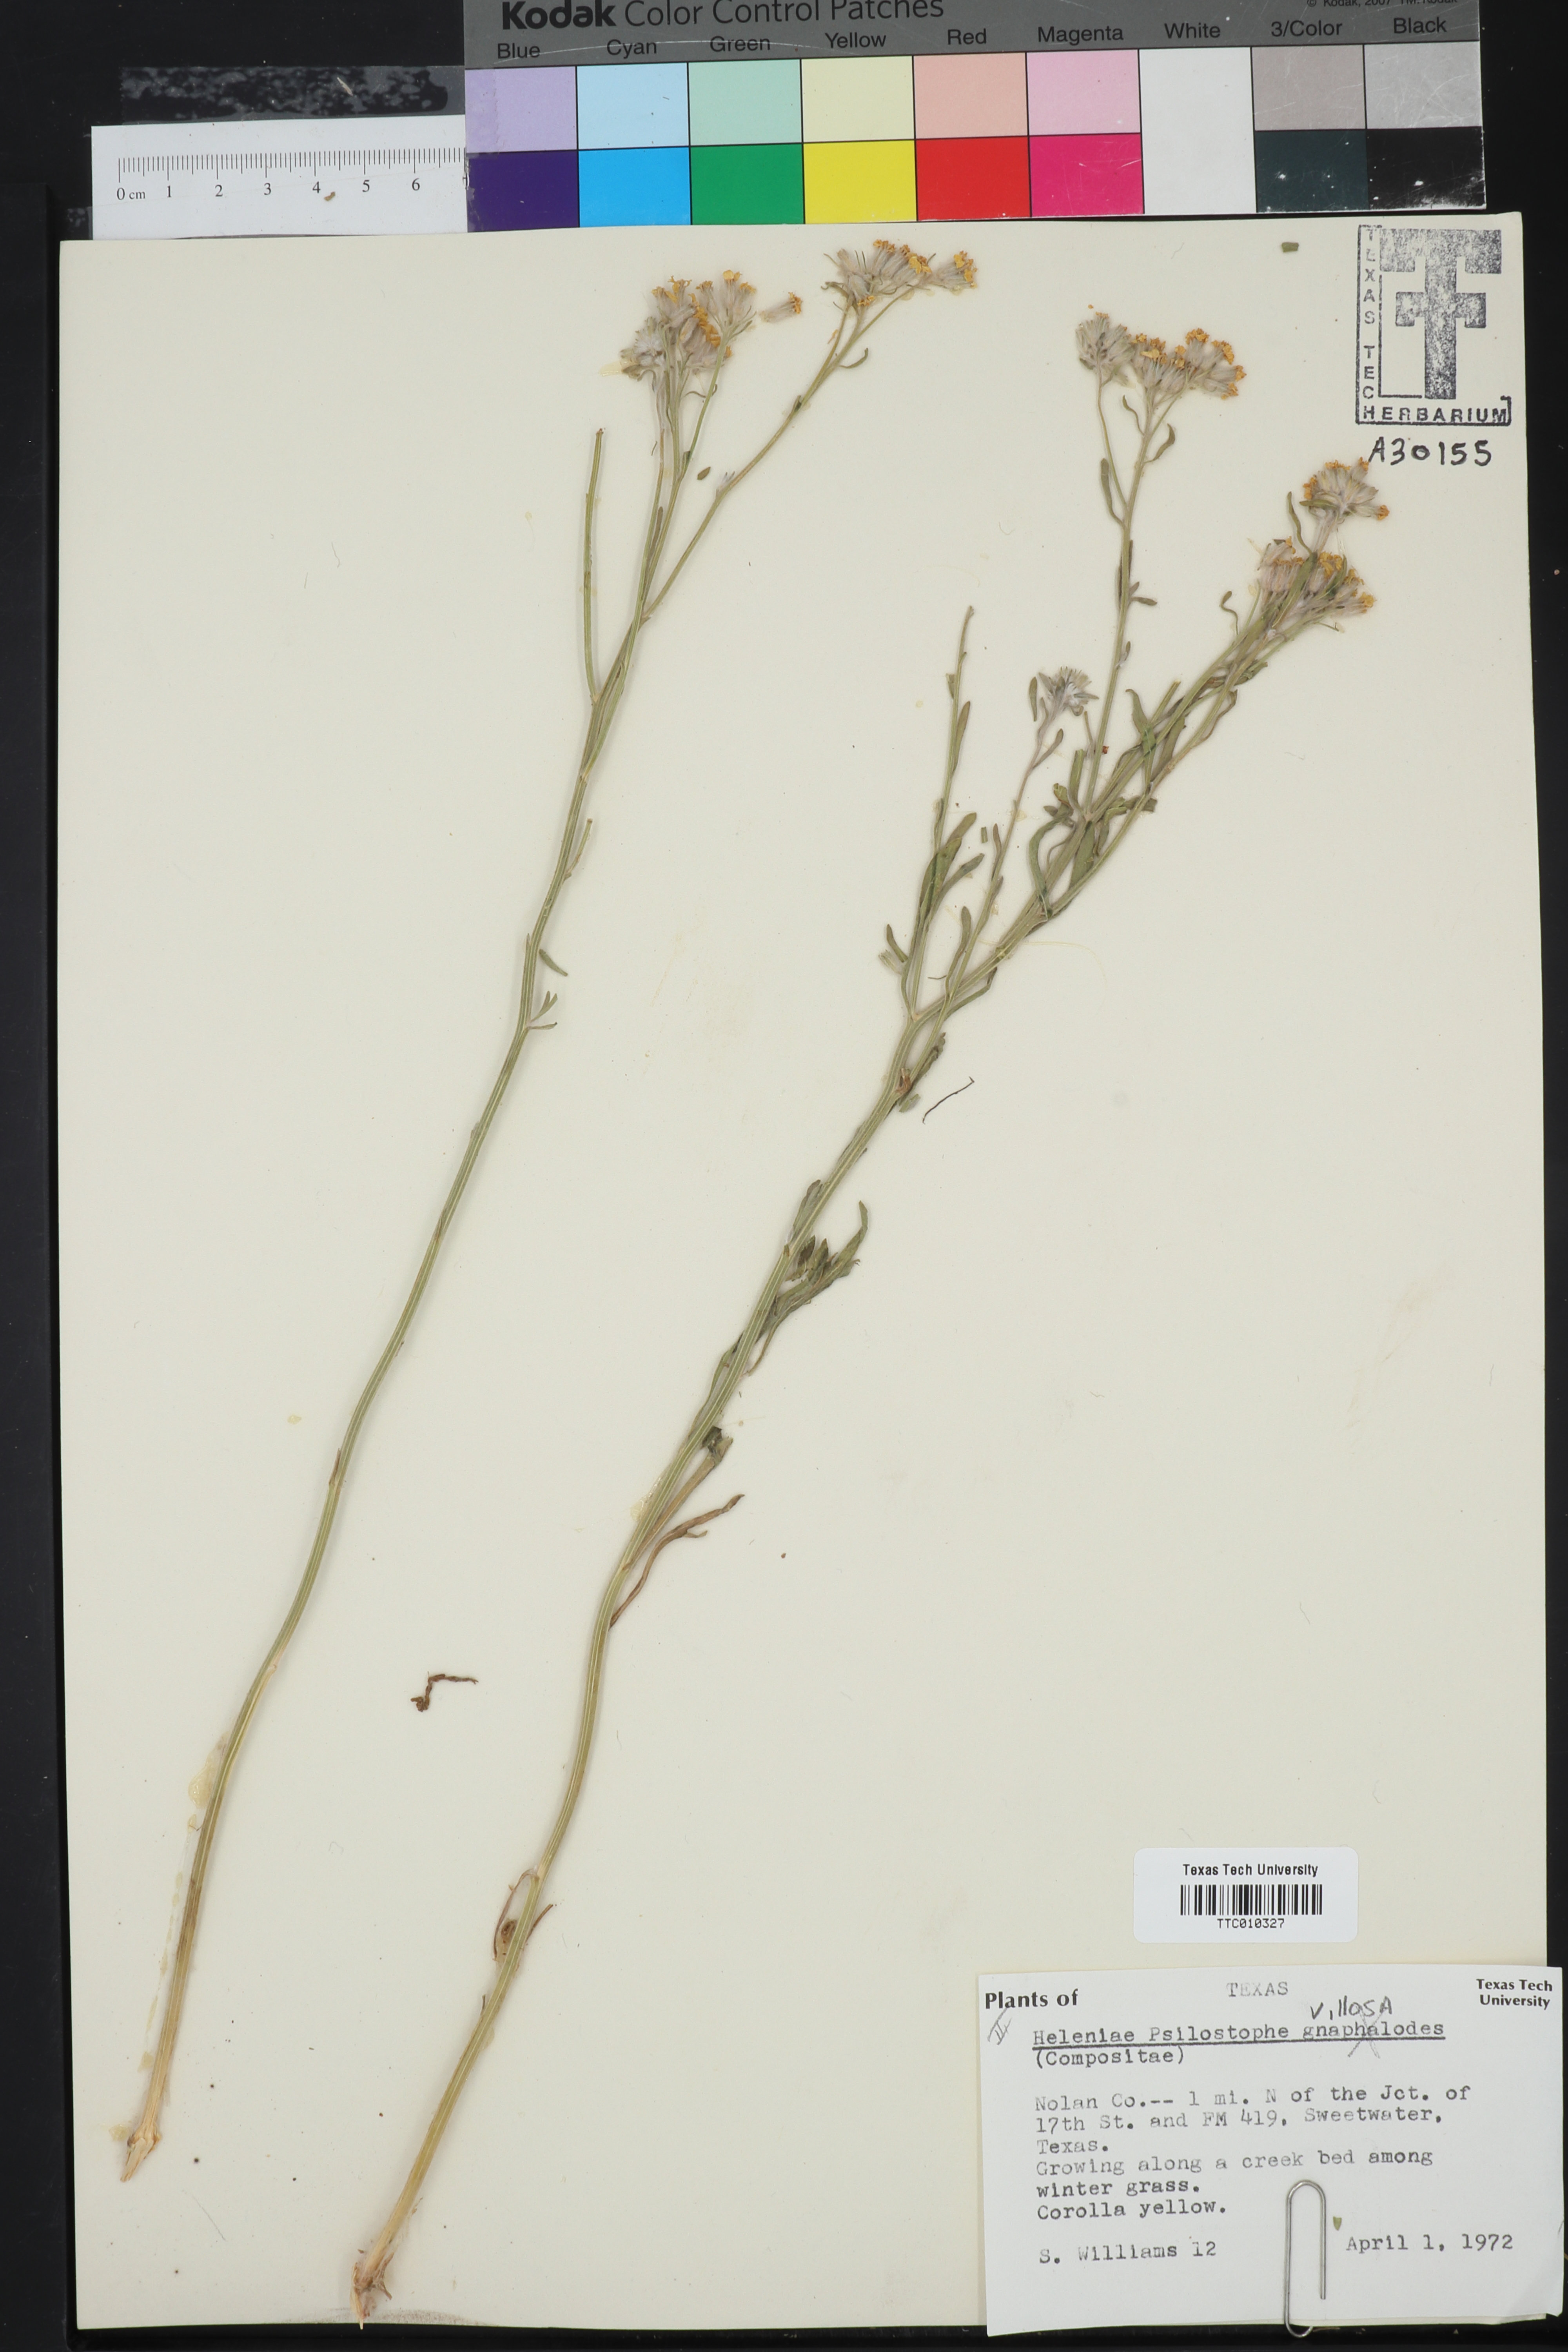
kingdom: Plantae
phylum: Tracheophyta
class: Magnoliopsida
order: Asterales
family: Asteraceae
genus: Psilostrophe
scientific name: Psilostrophe villosa
